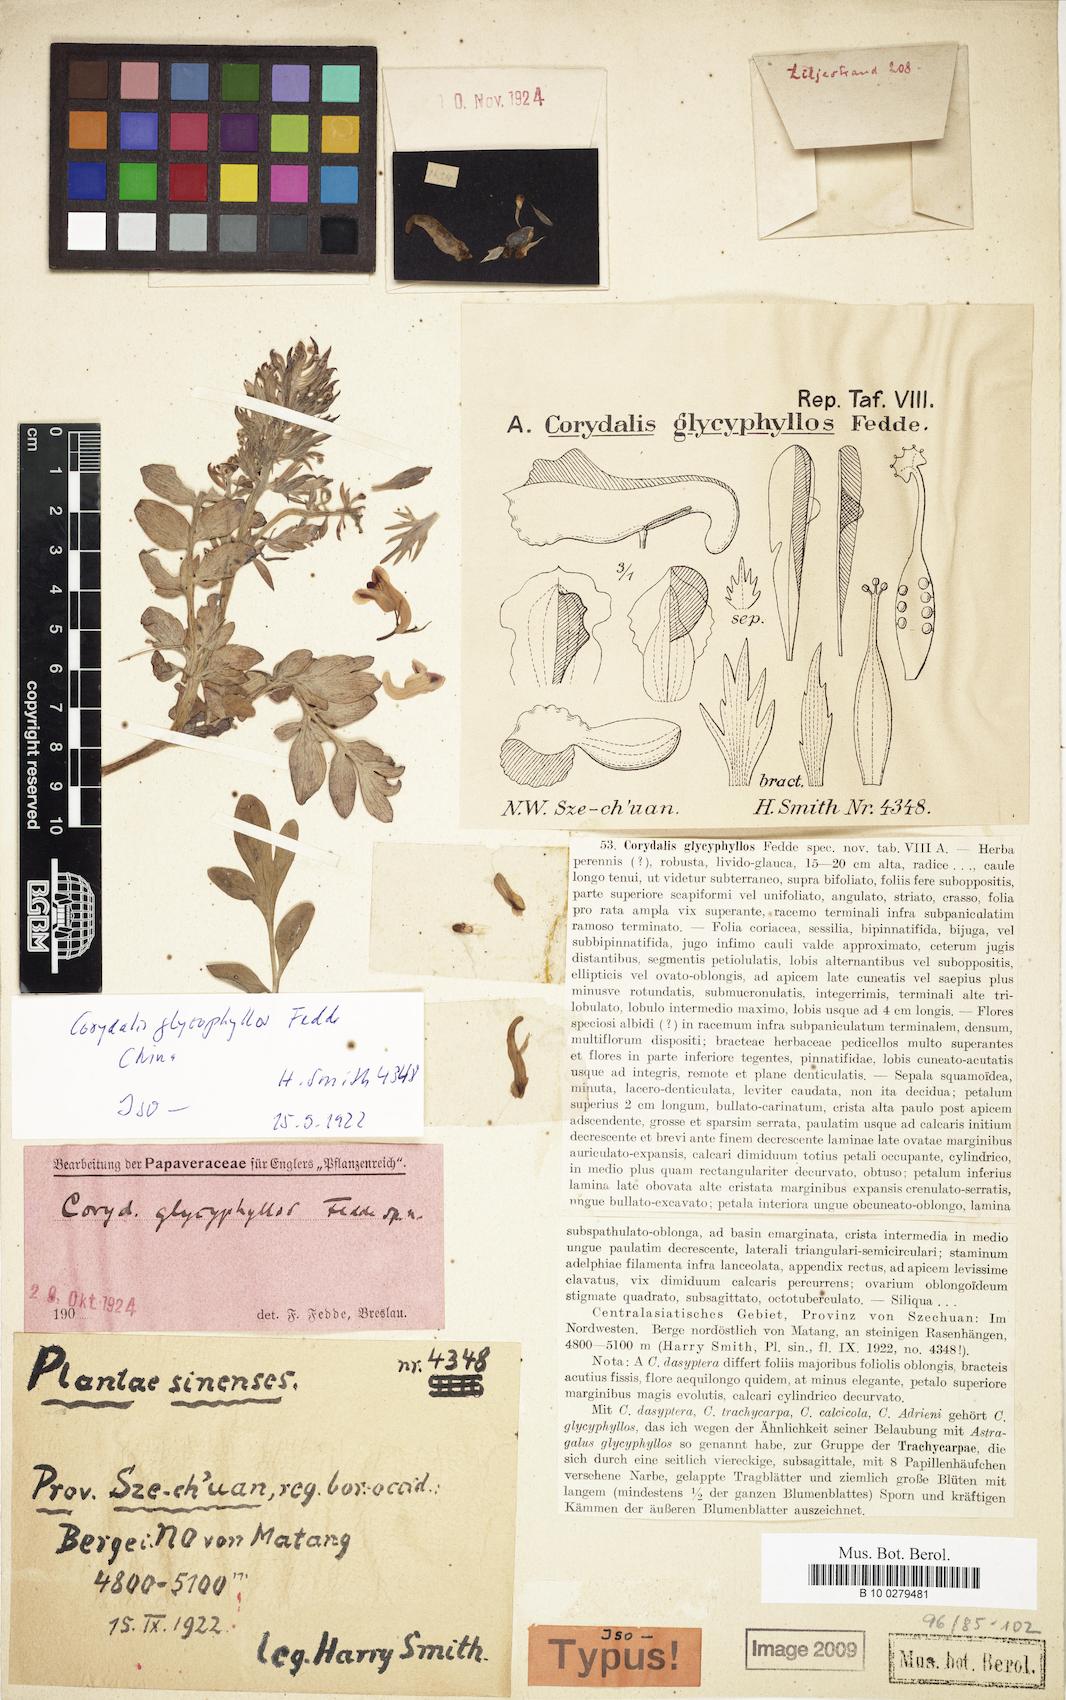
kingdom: Plantae
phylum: Tracheophyta
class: Magnoliopsida
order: Ranunculales
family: Papaveraceae
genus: Corydalis
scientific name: Corydalis glycyphyllos
